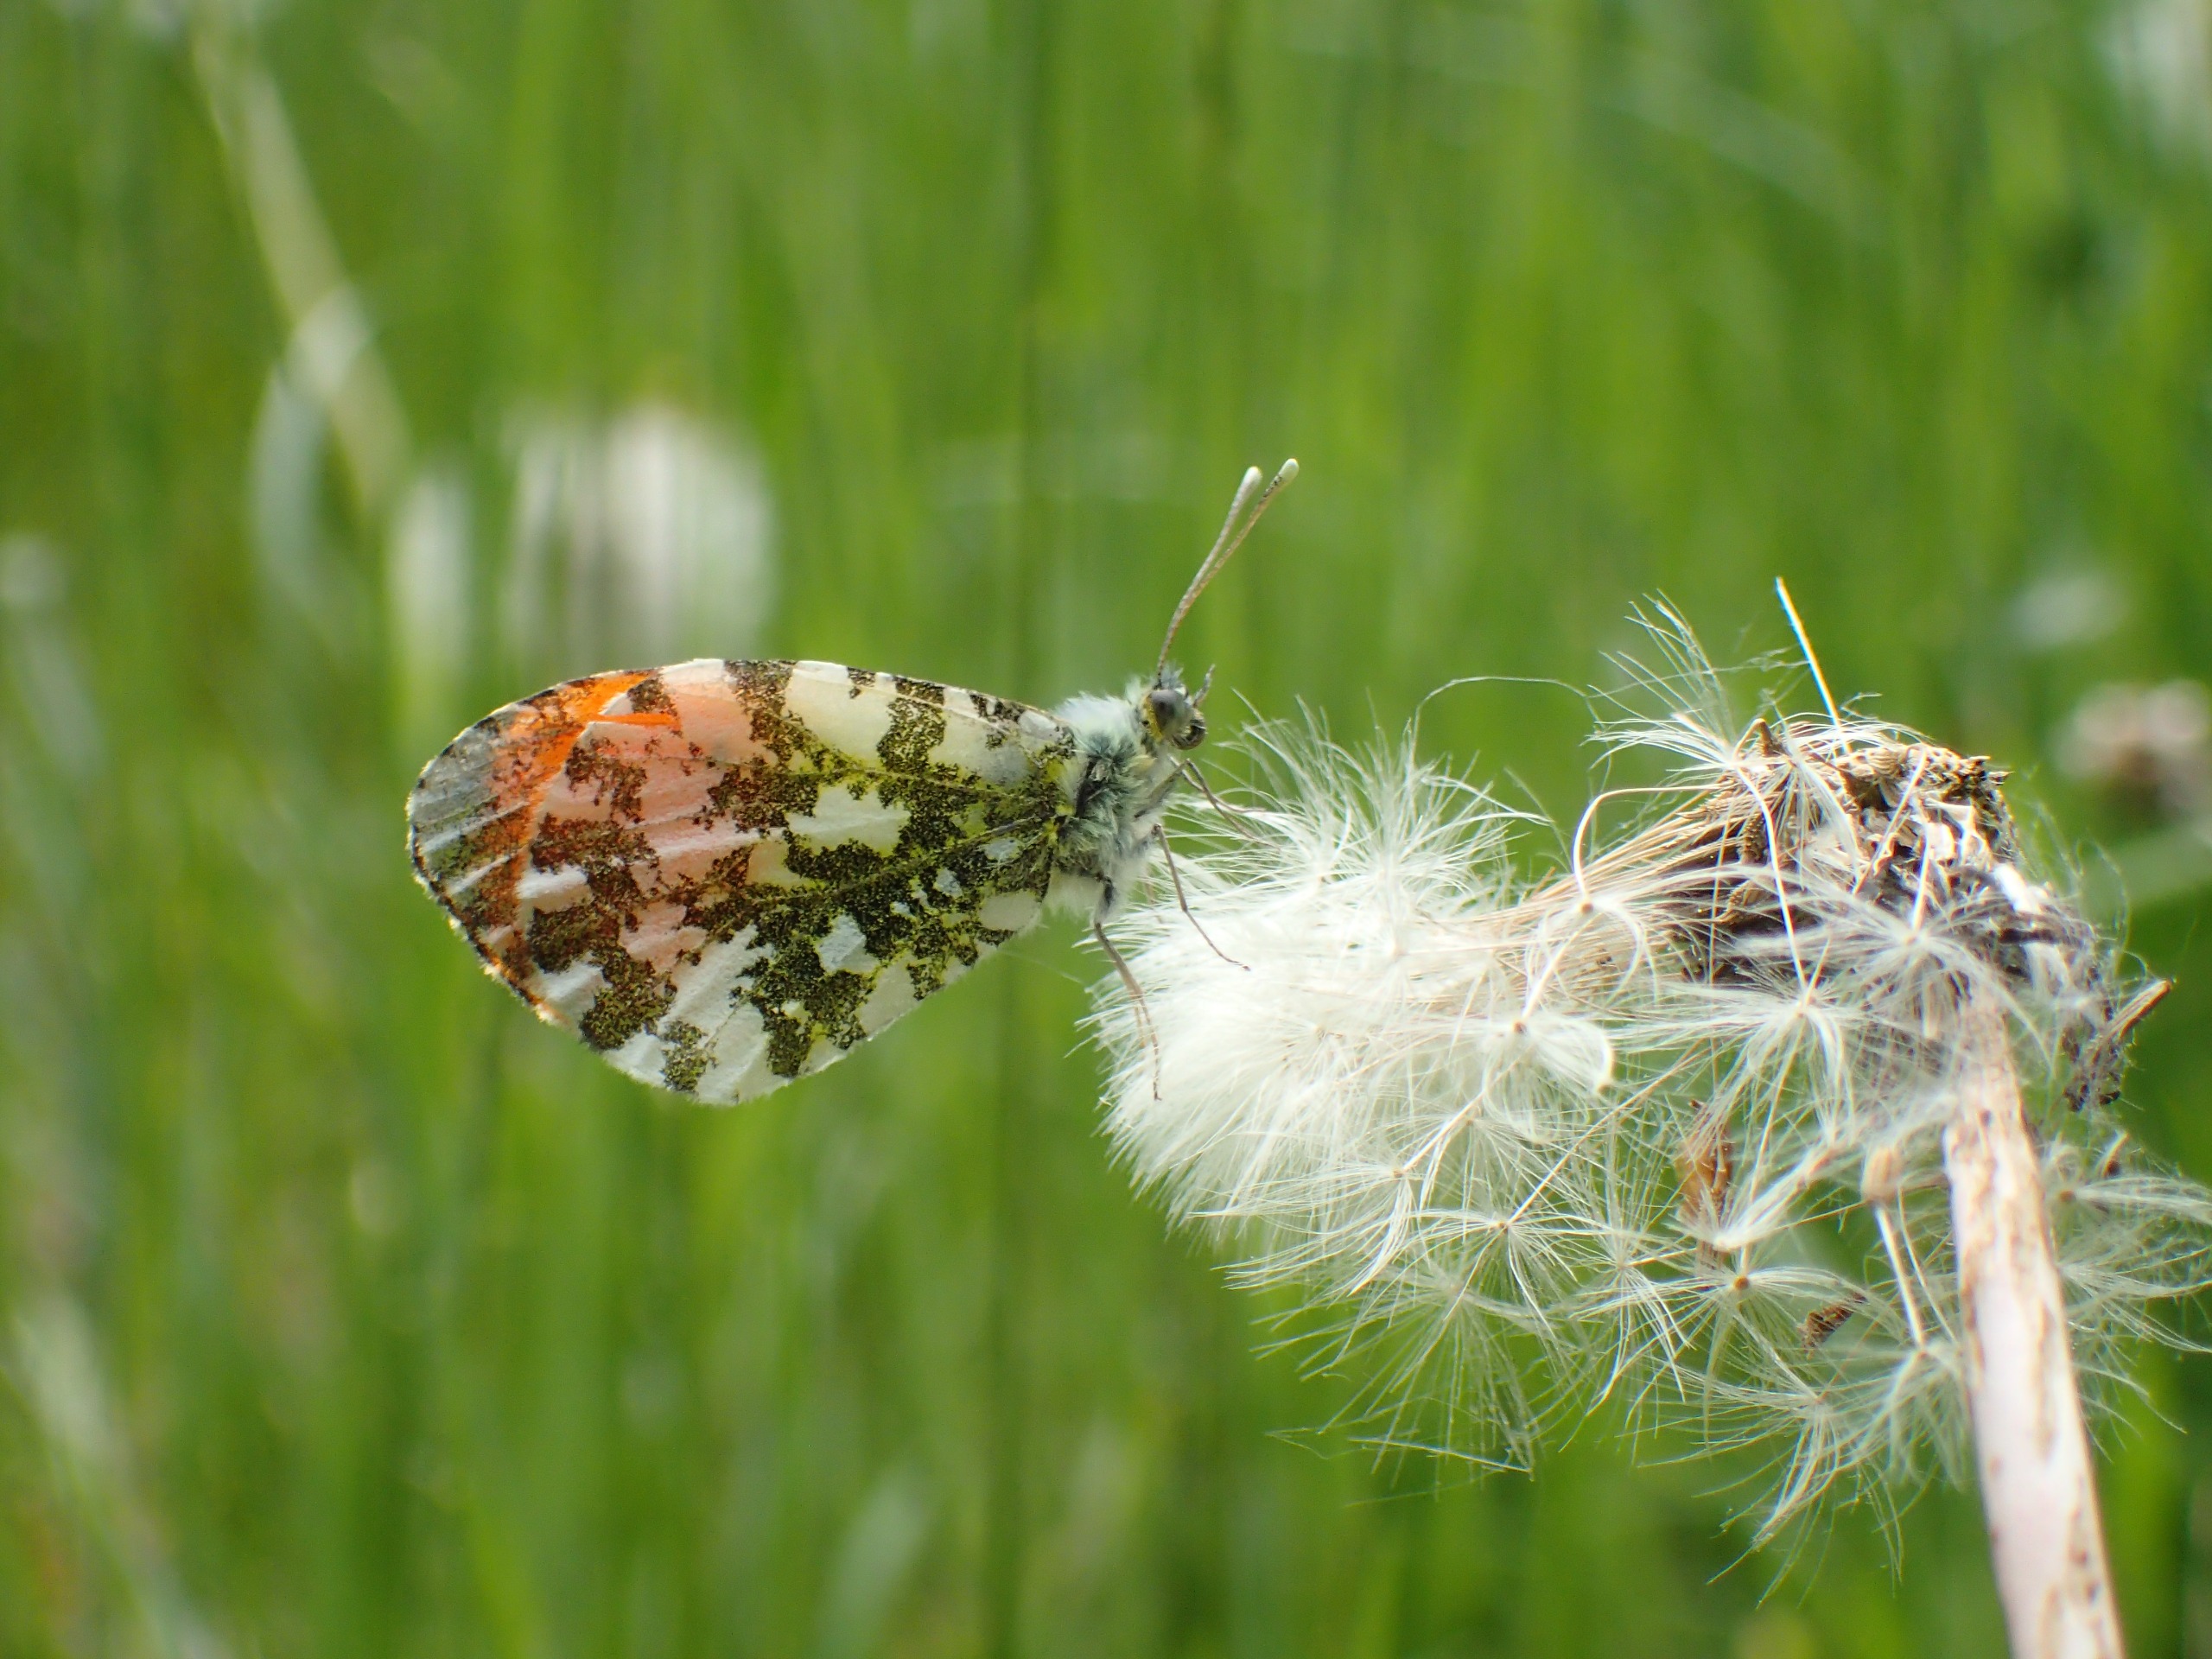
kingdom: Animalia
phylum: Arthropoda
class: Insecta
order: Lepidoptera
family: Pieridae
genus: Anthocharis
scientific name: Anthocharis cardamines
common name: Aurora
